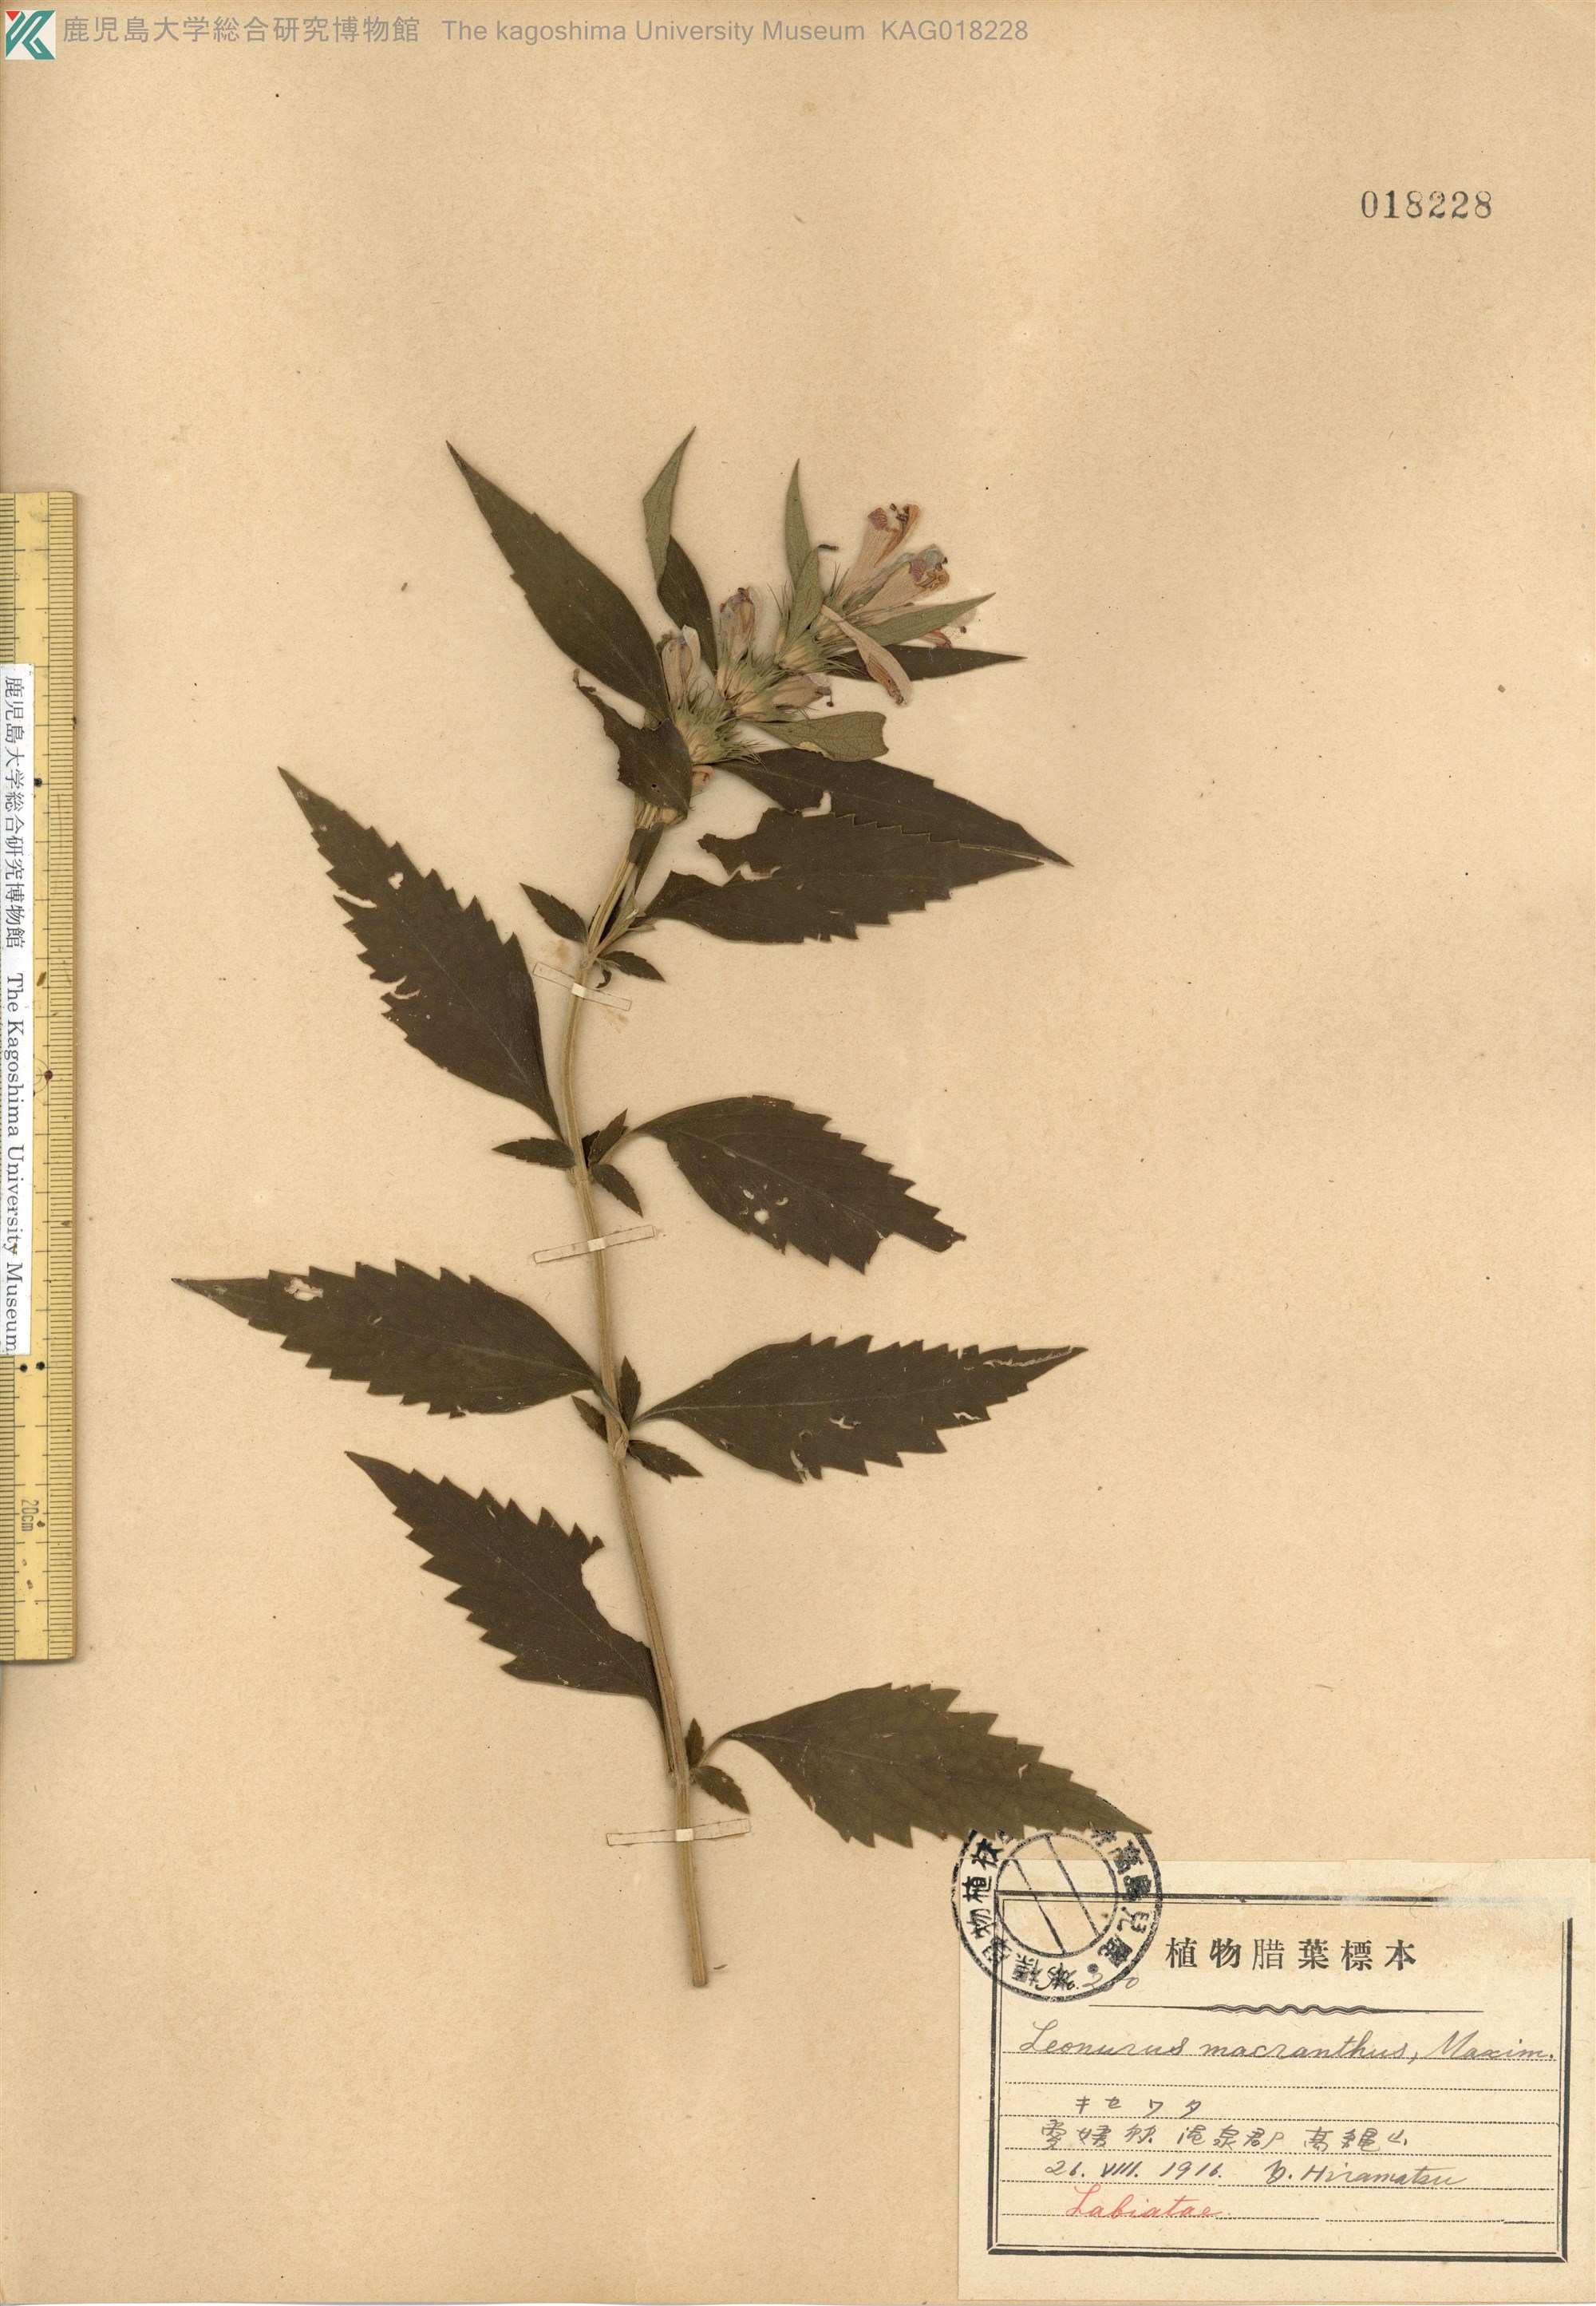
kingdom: Plantae
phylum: Tracheophyta
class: Magnoliopsida
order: Lamiales
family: Lamiaceae
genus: Leonurus
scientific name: Leonurus macranthus
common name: キセワタ
